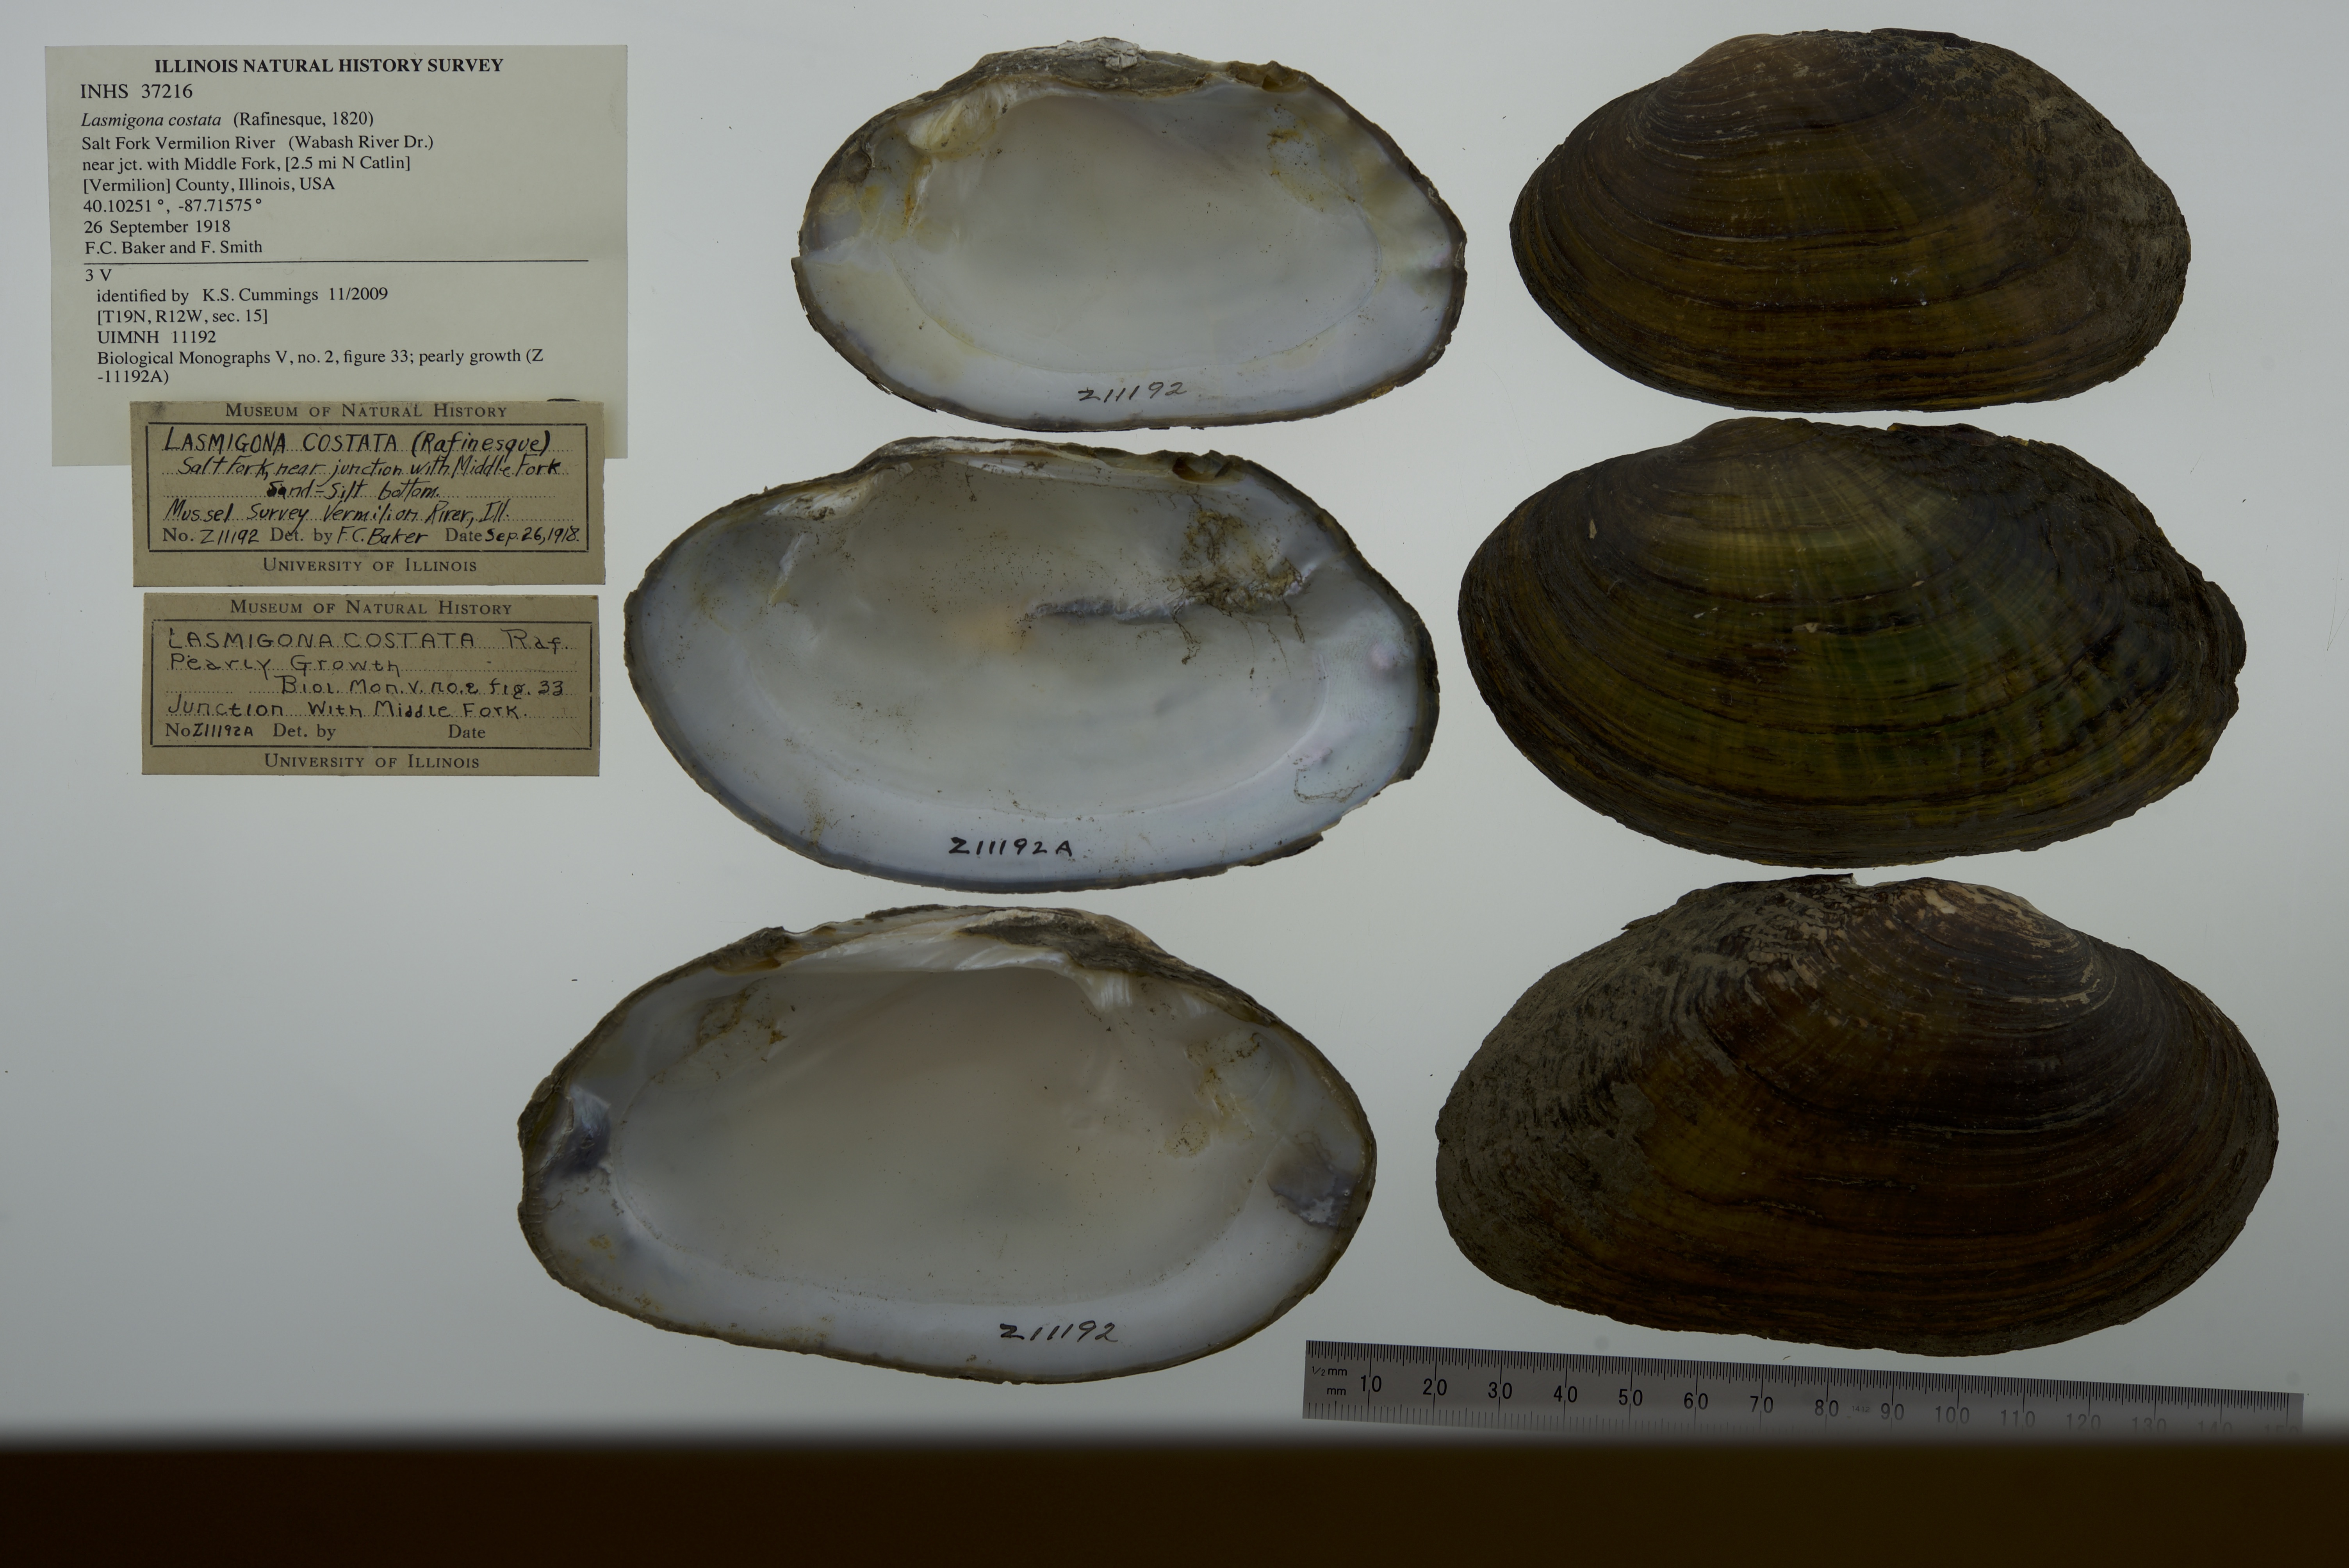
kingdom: Animalia
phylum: Mollusca
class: Bivalvia
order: Unionida
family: Unionidae
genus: Lasmigona
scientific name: Lasmigona costata
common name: Flutedshell
